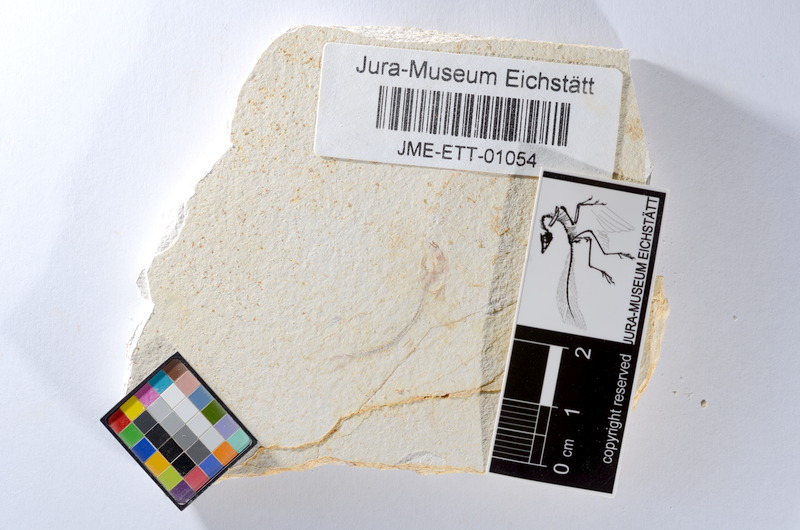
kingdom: Animalia
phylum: Chordata
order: Salmoniformes
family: Orthogonikleithridae
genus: Orthogonikleithrus
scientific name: Orthogonikleithrus hoelli
